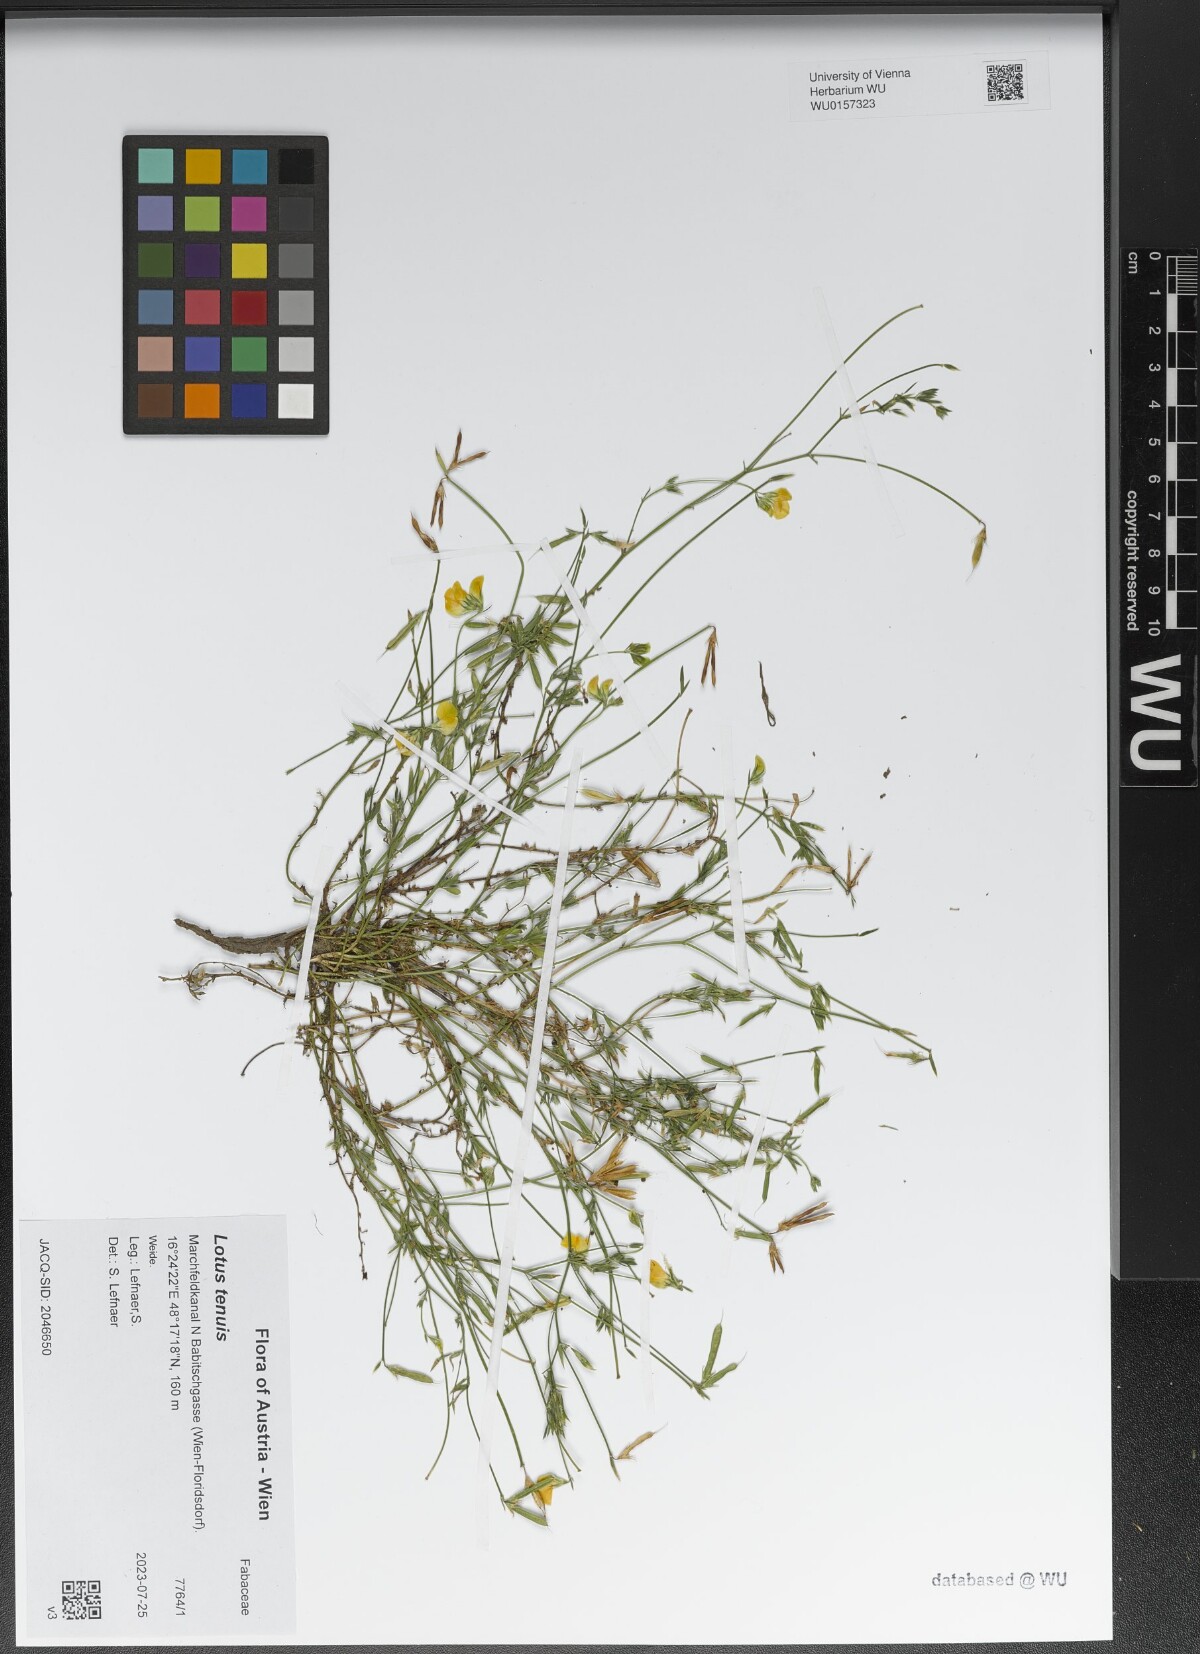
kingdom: Plantae
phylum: Tracheophyta
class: Magnoliopsida
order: Fabales
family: Fabaceae
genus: Lotus
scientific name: Lotus tenuis
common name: Narrow-leaved bird's-foot-trefoil
